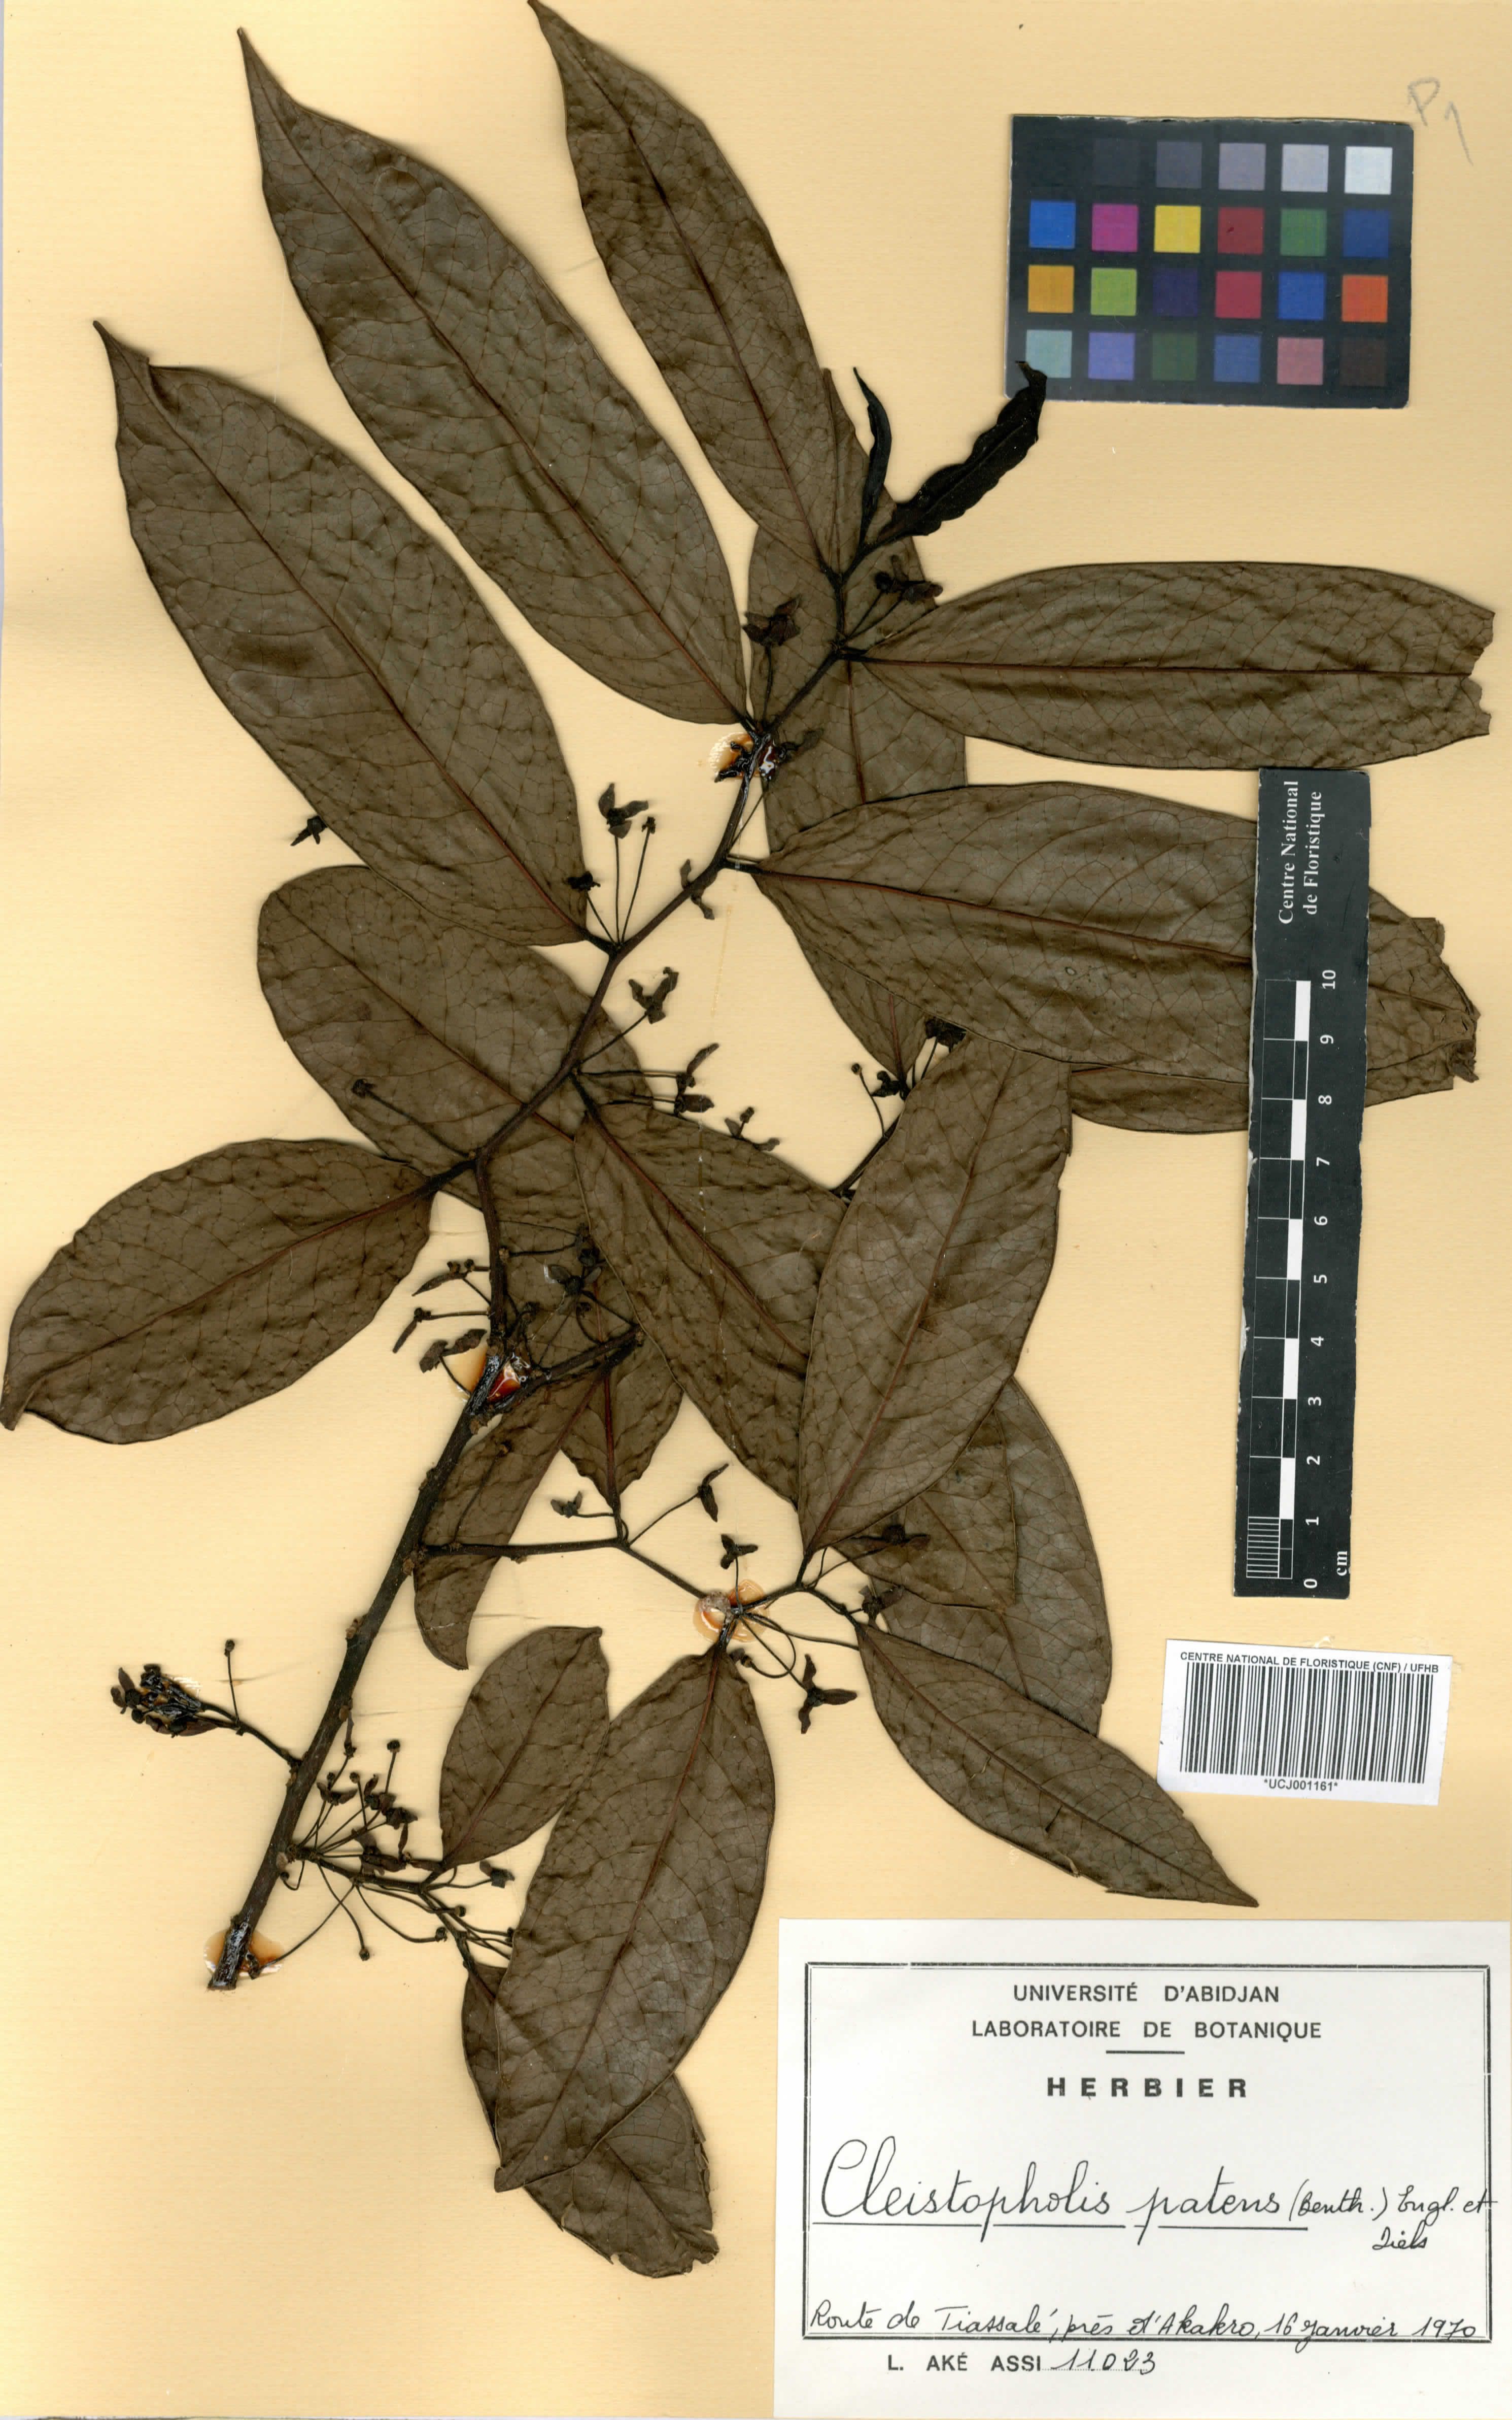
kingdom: Plantae
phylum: Tracheophyta
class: Magnoliopsida
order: Magnoliales
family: Annonaceae
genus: Cleistopholis
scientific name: Cleistopholis patens
